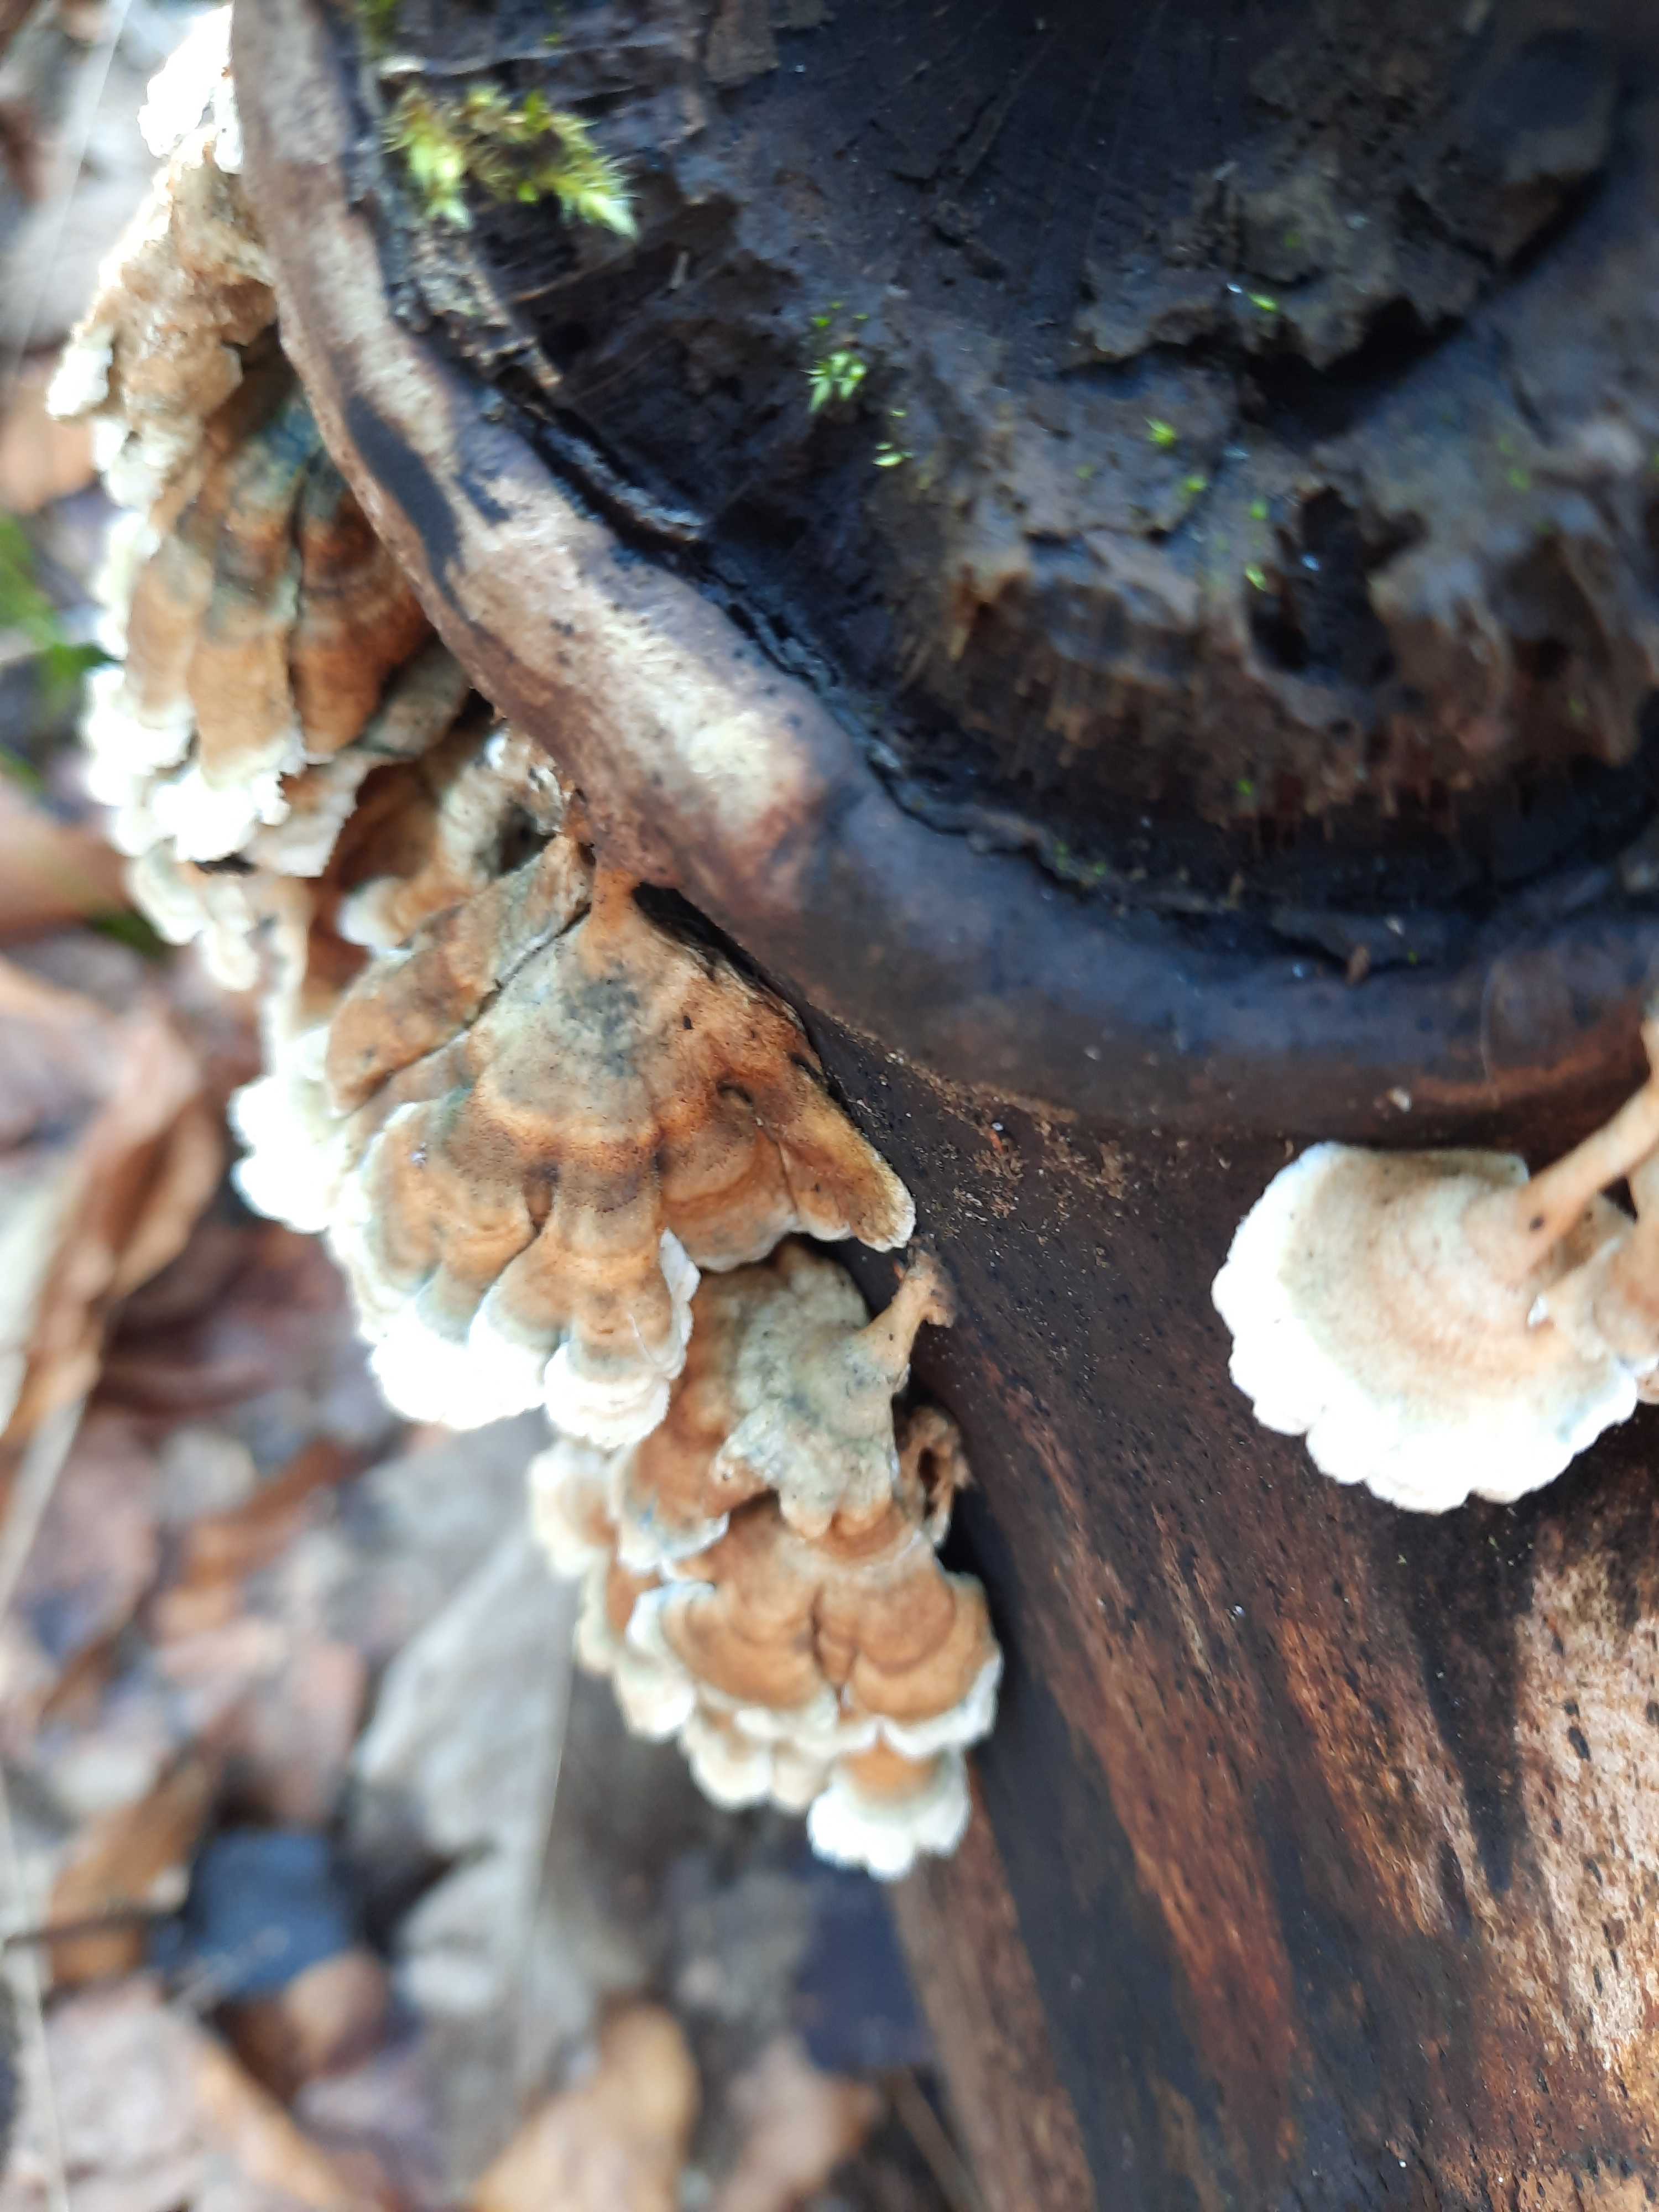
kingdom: Fungi
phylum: Basidiomycota
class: Agaricomycetes
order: Amylocorticiales
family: Amylocorticiaceae
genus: Plicaturopsis
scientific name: Plicaturopsis crispa
